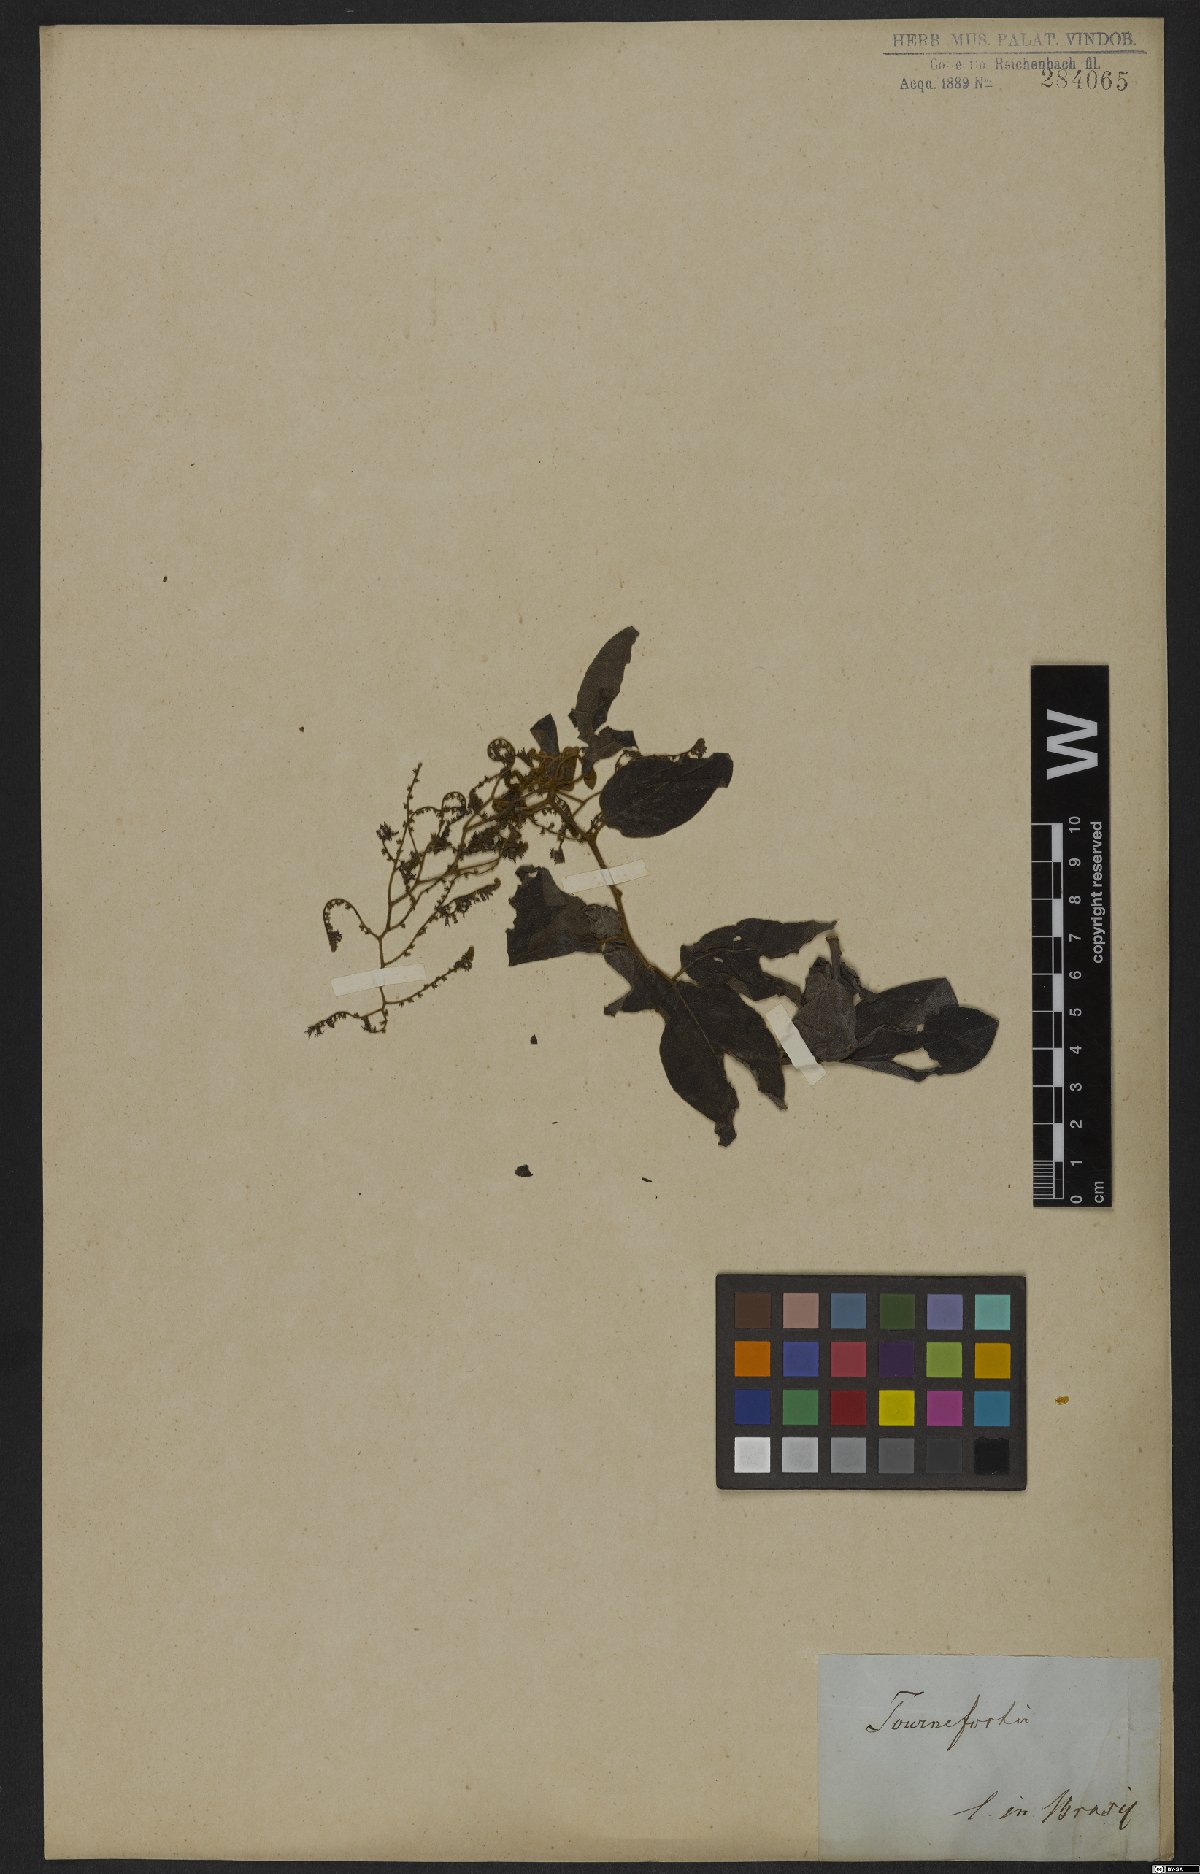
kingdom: Plantae
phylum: Tracheophyta
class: Magnoliopsida
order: Boraginales
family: Heliotropiaceae
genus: Myriopus
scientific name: Myriopus volubilis
